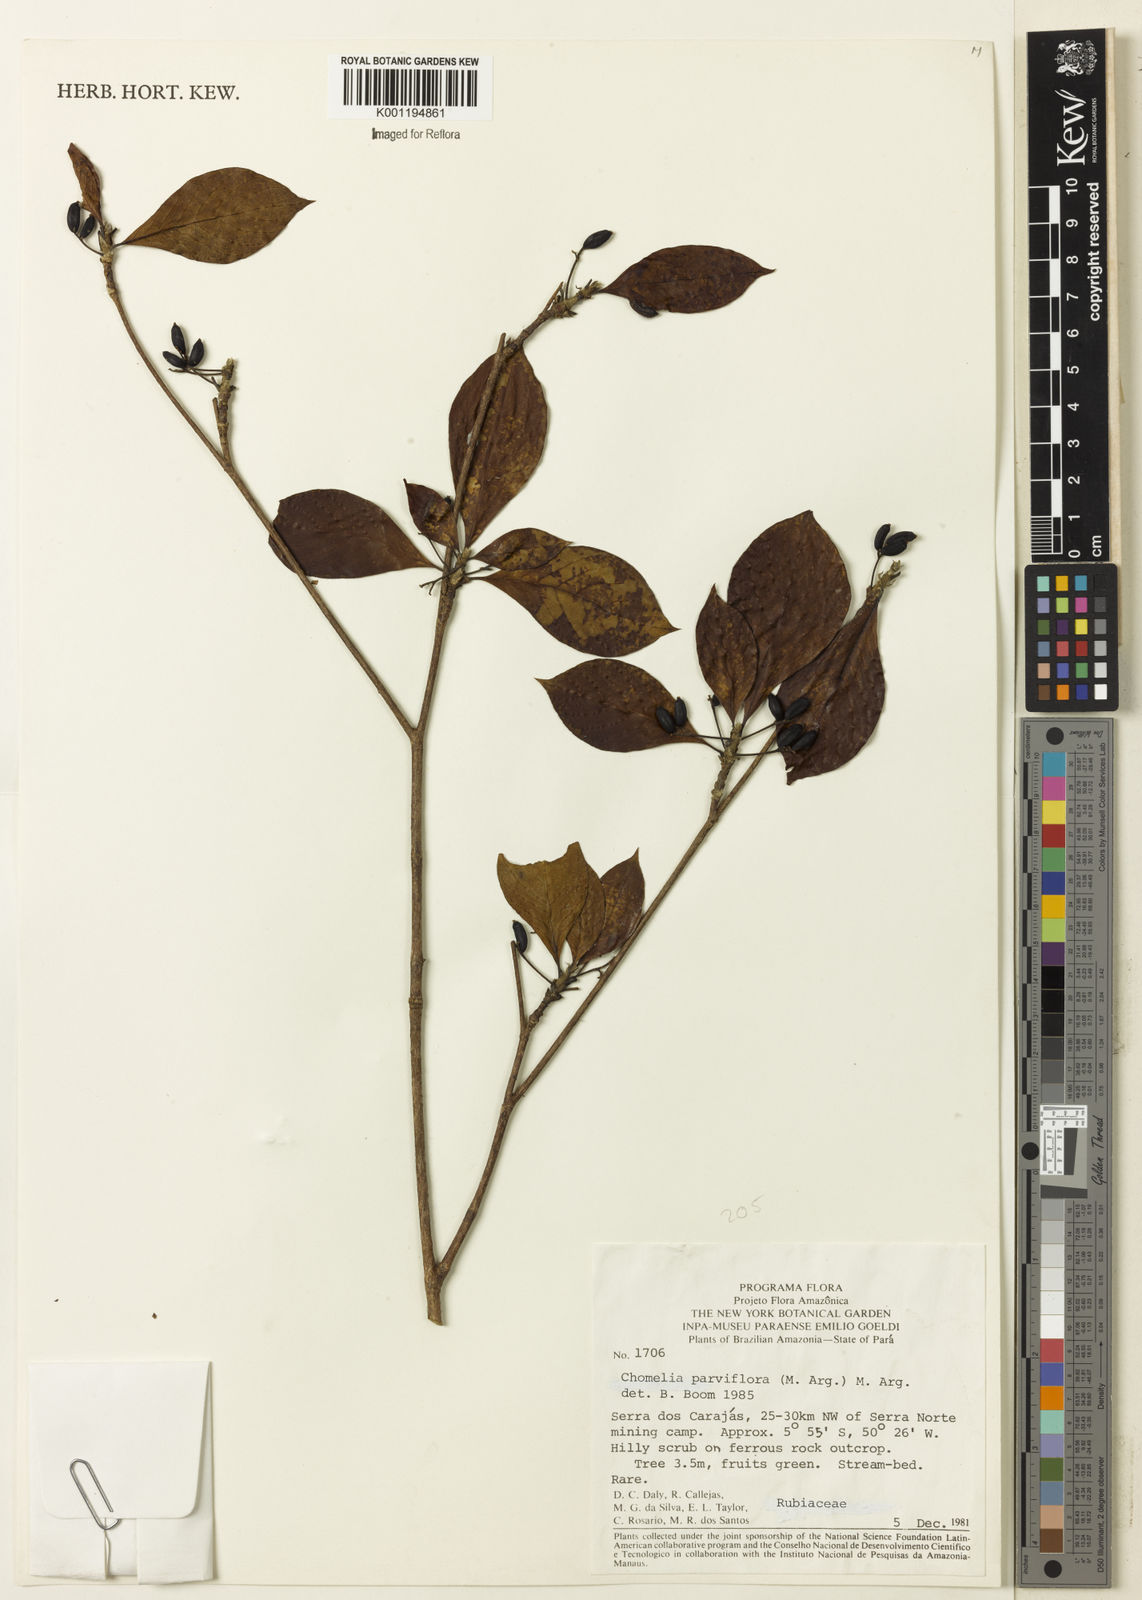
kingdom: Plantae
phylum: Tracheophyta
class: Magnoliopsida
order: Gentianales
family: Rubiaceae
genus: Chomelia
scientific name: Chomelia
